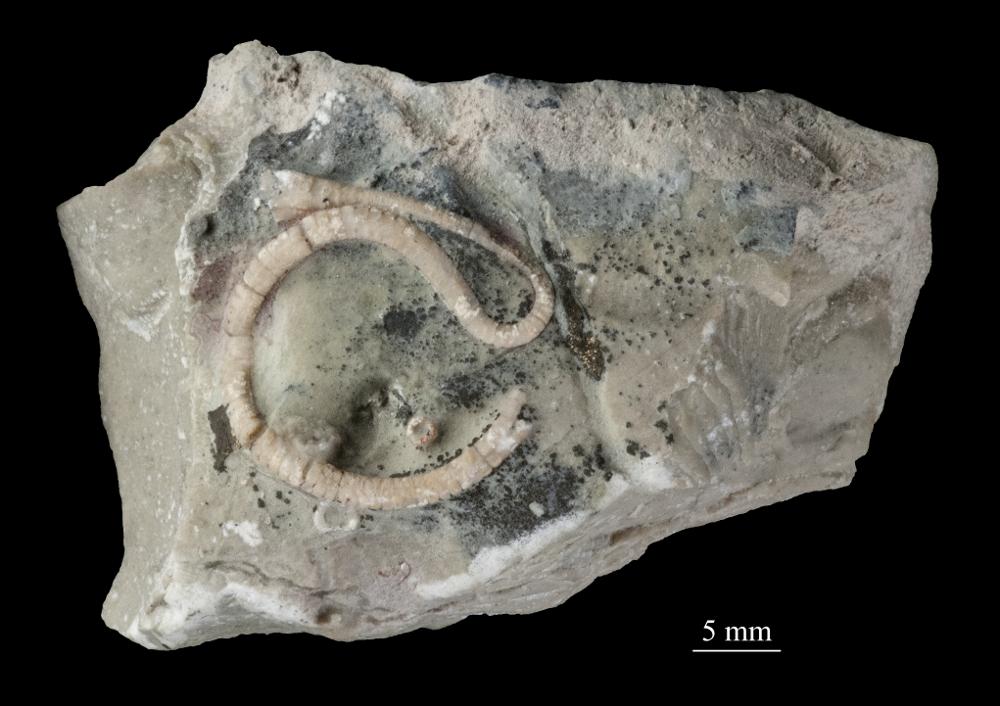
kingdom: Plantae
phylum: Tracheophyta
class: Pinopsida
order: Pinales
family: Cupressaceae
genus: Platycladus
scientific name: Platycladus
